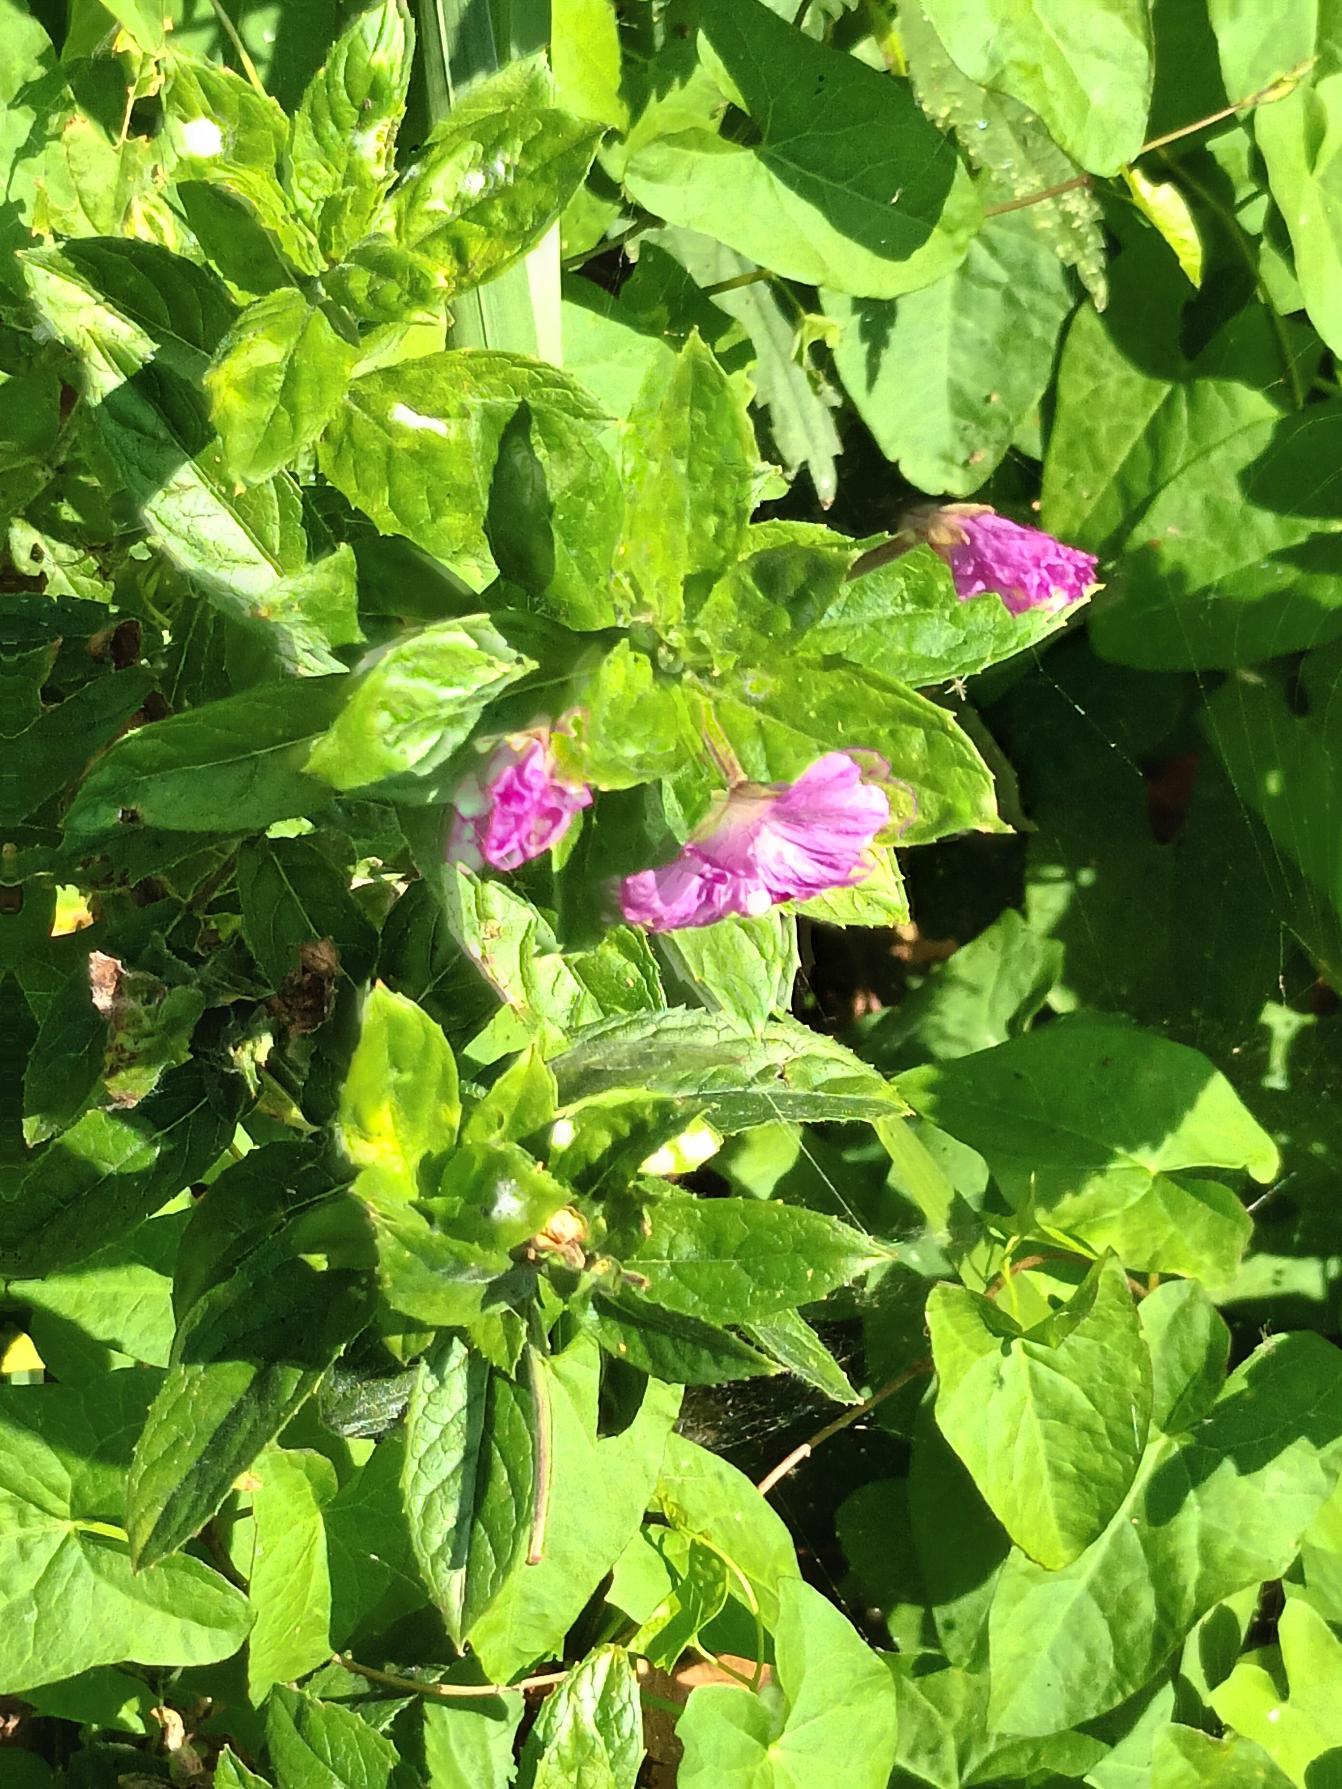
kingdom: Plantae
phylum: Tracheophyta
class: Magnoliopsida
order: Myrtales
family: Onagraceae
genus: Epilobium
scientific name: Epilobium hirsutum
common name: Lådden dueurt
